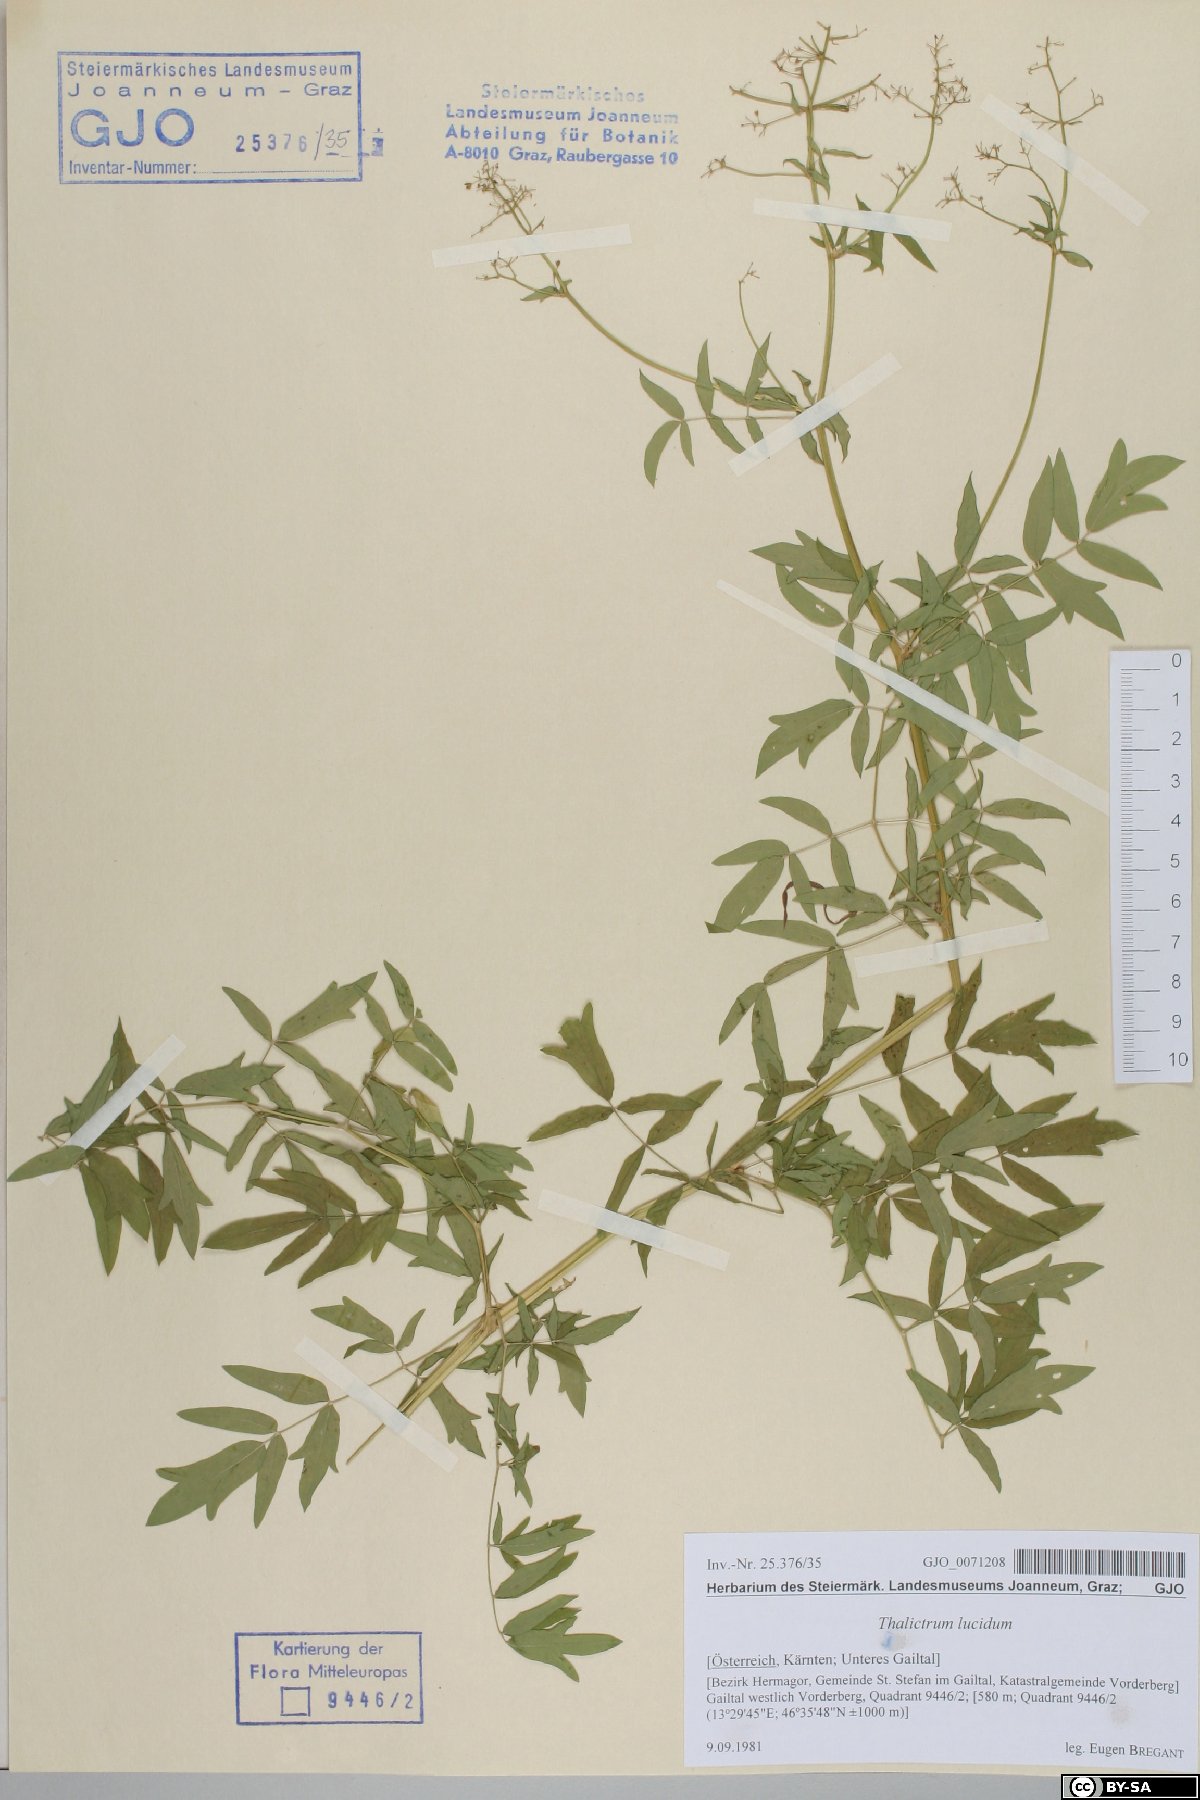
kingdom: Plantae
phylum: Tracheophyta
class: Magnoliopsida
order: Ranunculales
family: Ranunculaceae
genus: Thalictrum
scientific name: Thalictrum lucidum
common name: Shining meadow-rue
